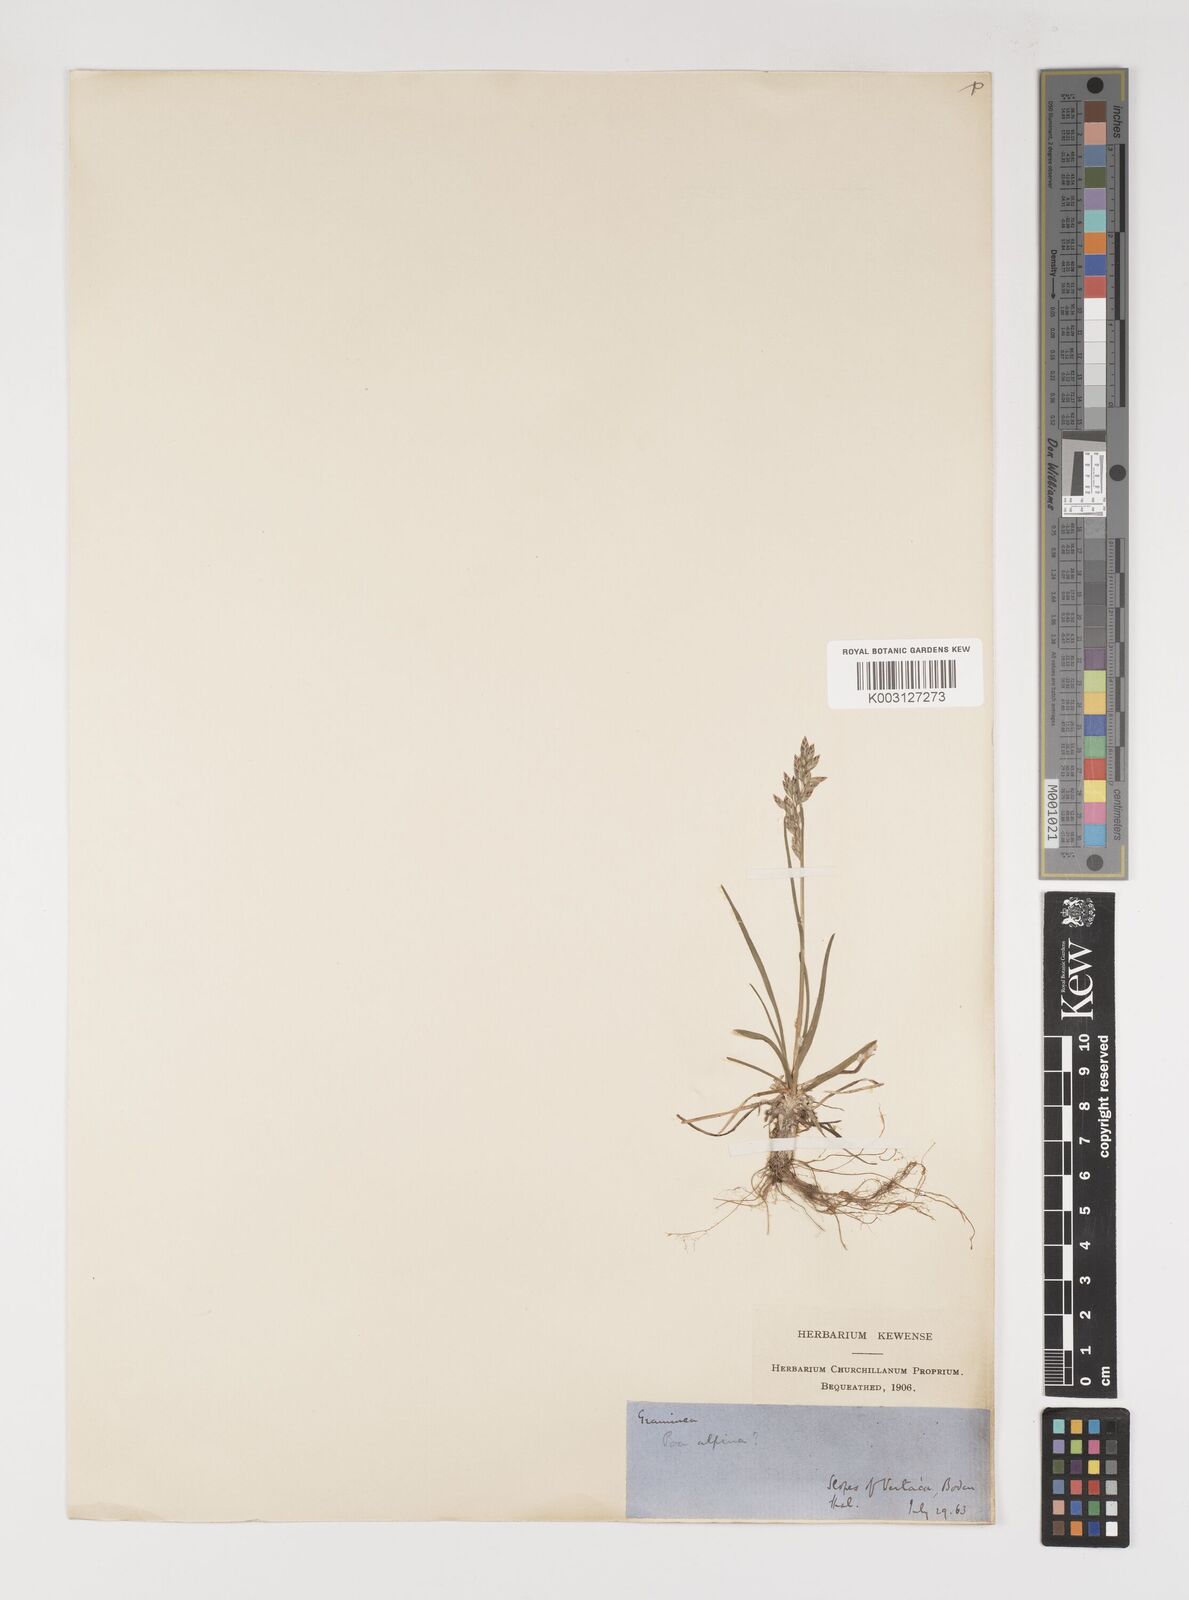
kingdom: Plantae
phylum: Tracheophyta
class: Liliopsida
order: Poales
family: Poaceae
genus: Poa
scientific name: Poa alpina
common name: Alpine bluegrass
